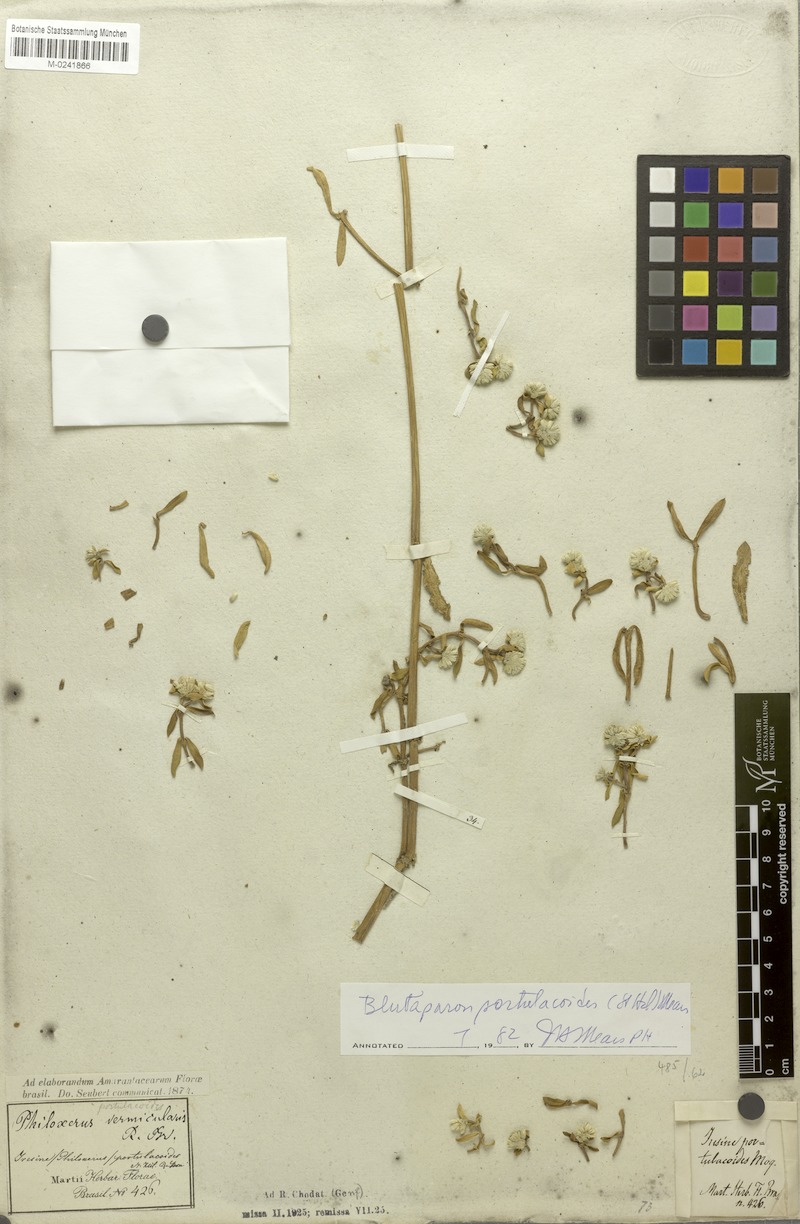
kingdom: Plantae
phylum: Tracheophyta
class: Magnoliopsida
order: Caryophyllales
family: Amaranthaceae
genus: Gomphrena
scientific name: Gomphrena portulacoides
